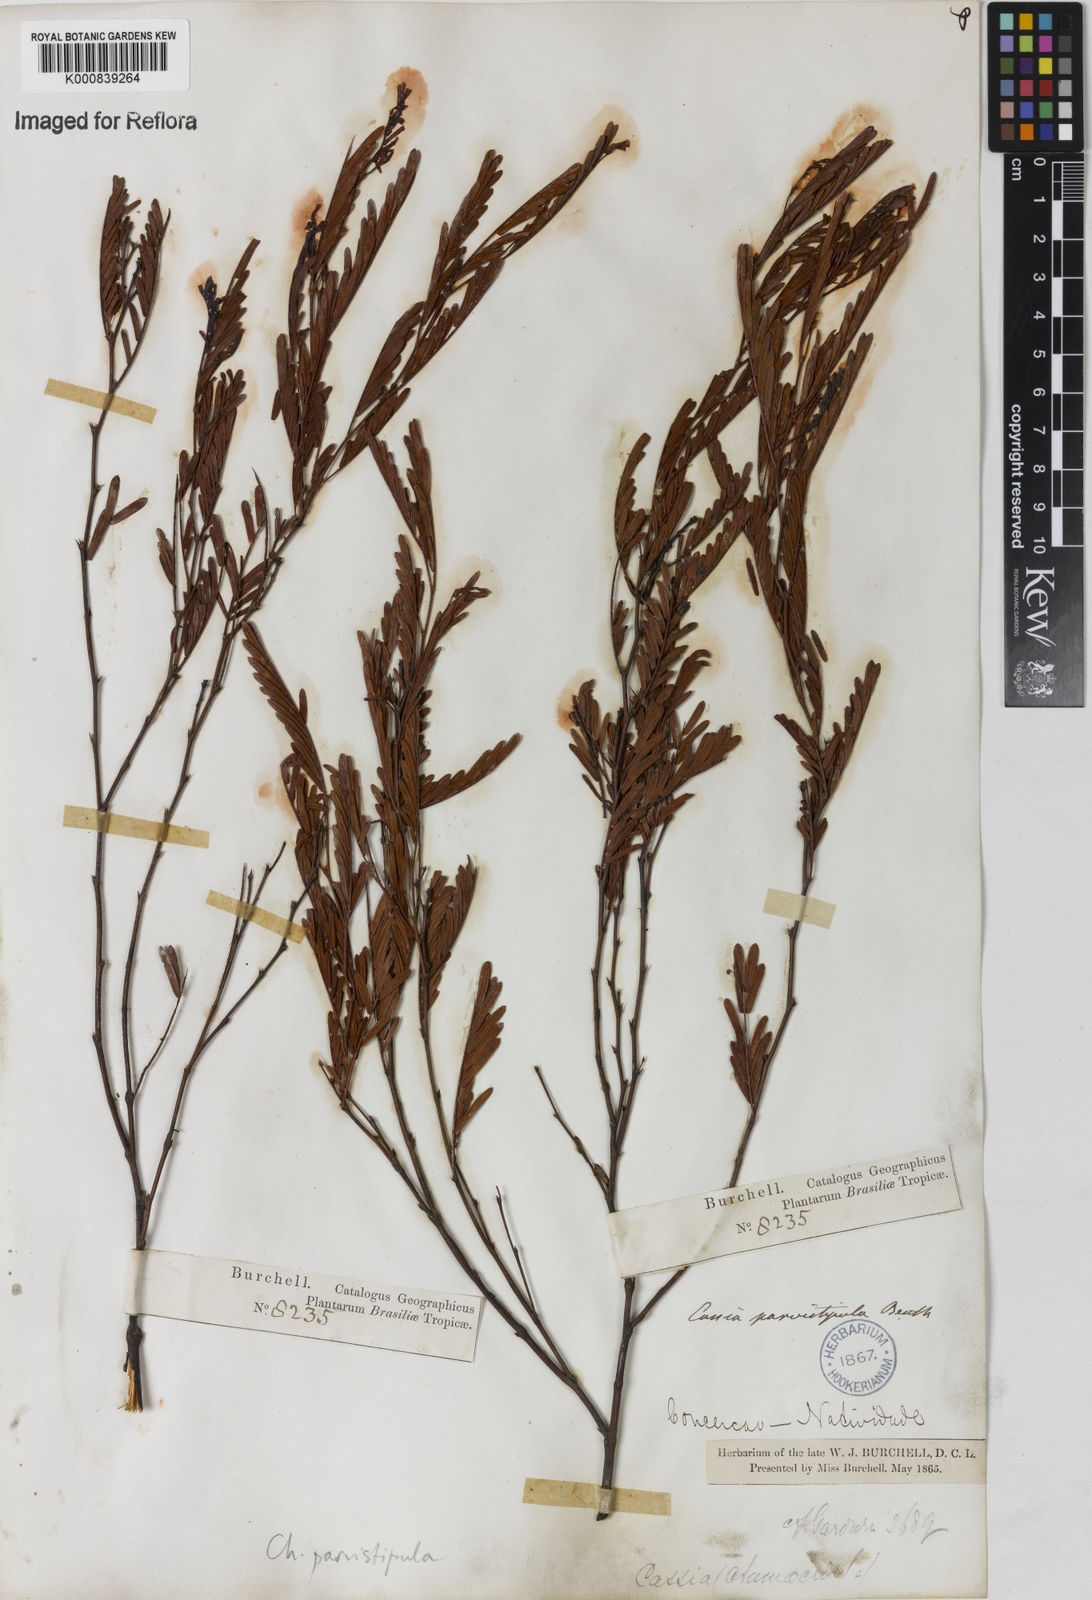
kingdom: Plantae
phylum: Tracheophyta
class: Magnoliopsida
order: Fabales
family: Fabaceae
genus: Chamaecrista
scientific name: Chamaecrista parvistipula
